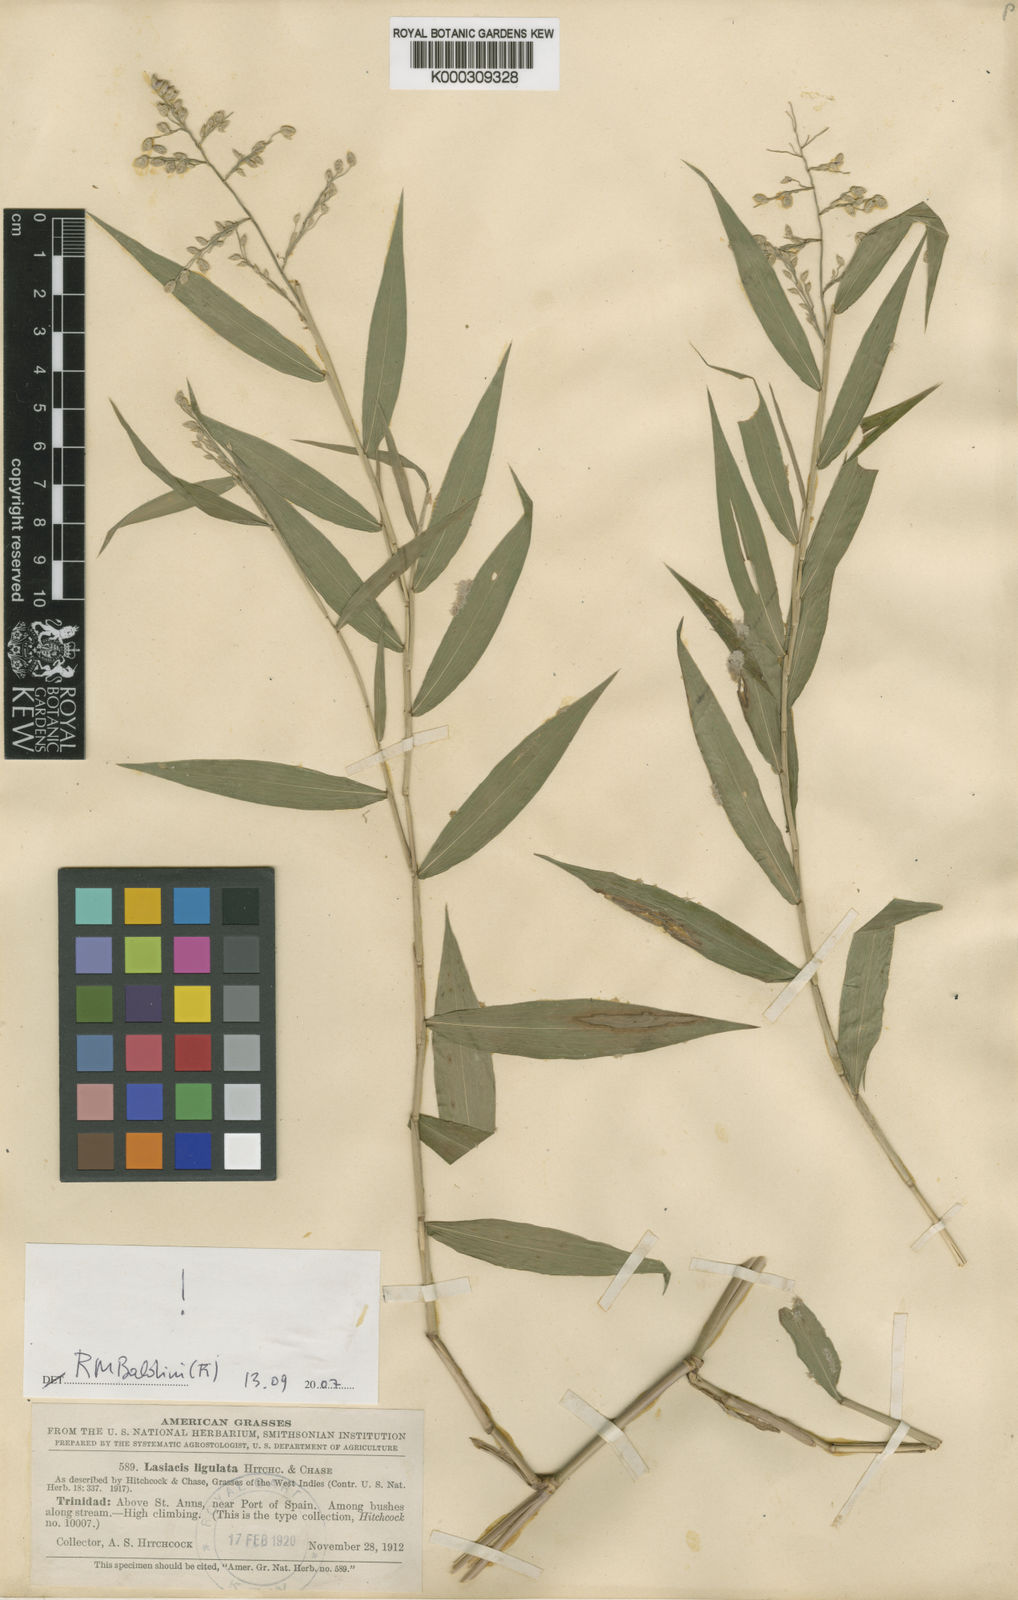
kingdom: Plantae
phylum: Tracheophyta
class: Liliopsida
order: Poales
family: Poaceae
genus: Lasiacis
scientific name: Lasiacis ligulata
